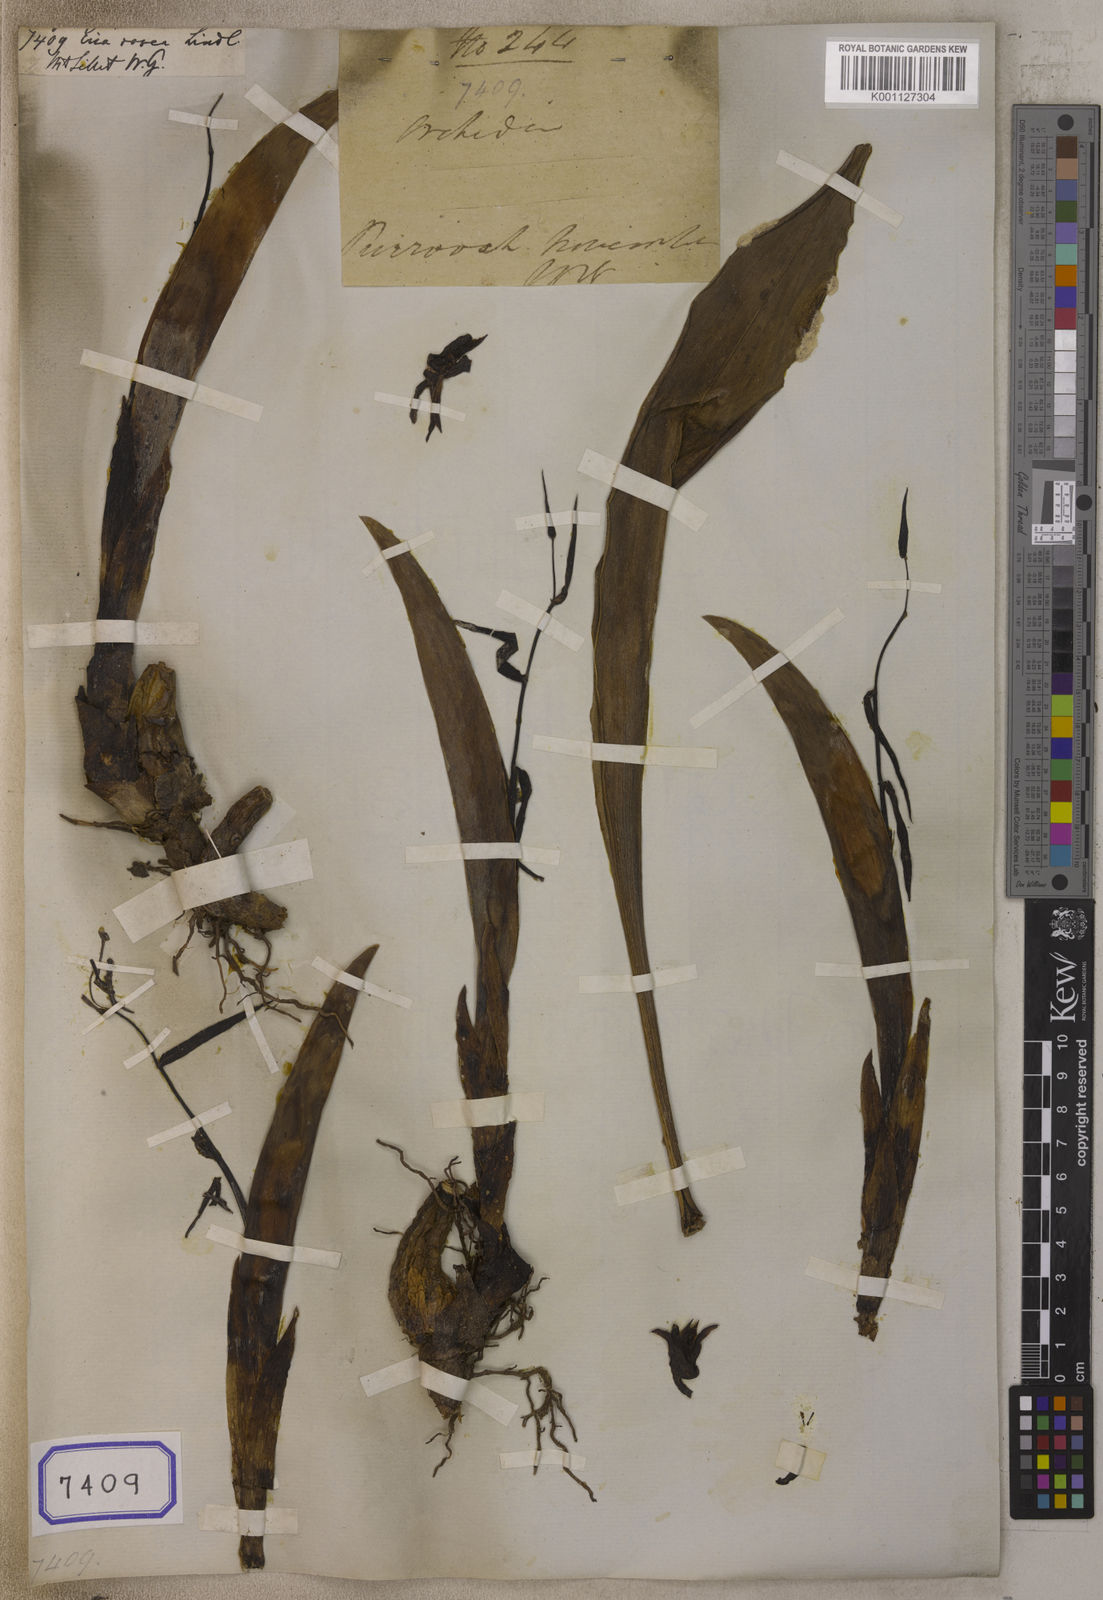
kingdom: Plantae
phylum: Tracheophyta
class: Liliopsida
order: Asparagales
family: Orchidaceae
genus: Cryptochilus
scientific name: Cryptochilus acuminatus
